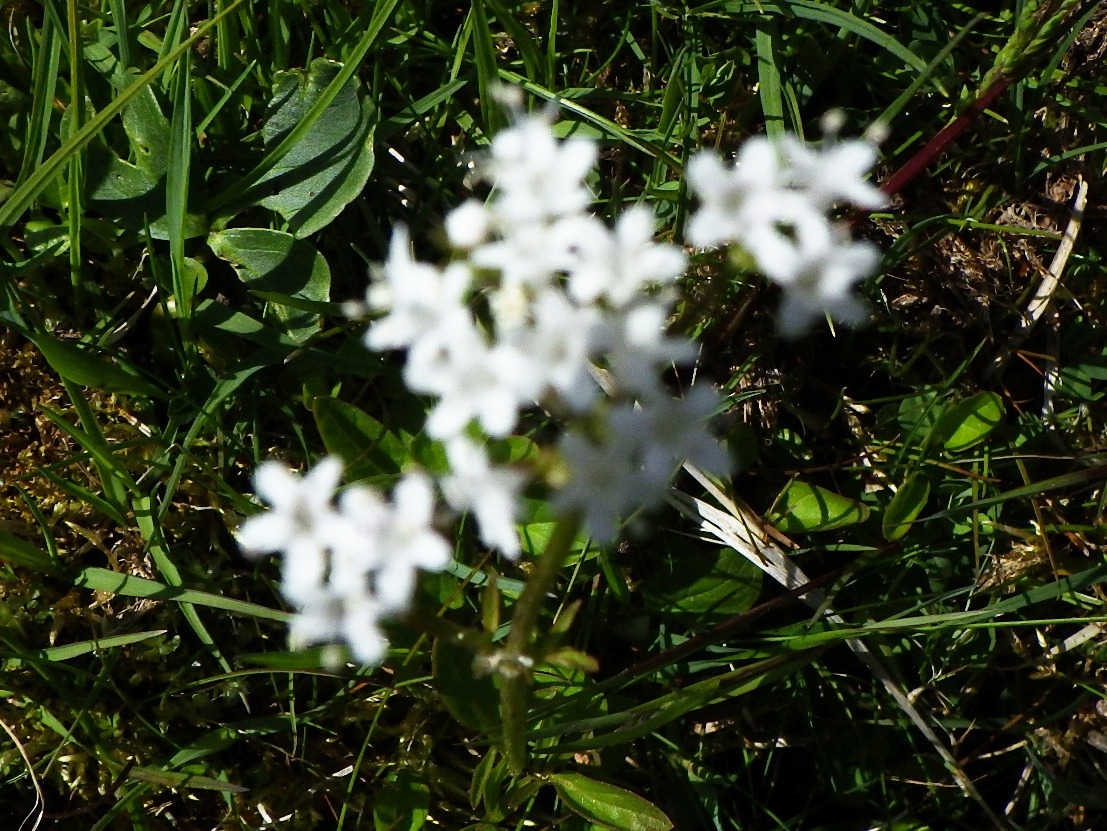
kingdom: Plantae
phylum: Tracheophyta
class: Magnoliopsida
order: Dipsacales
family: Caprifoliaceae
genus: Valeriana
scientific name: Valeriana dioica
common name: Tvebo baldrian
